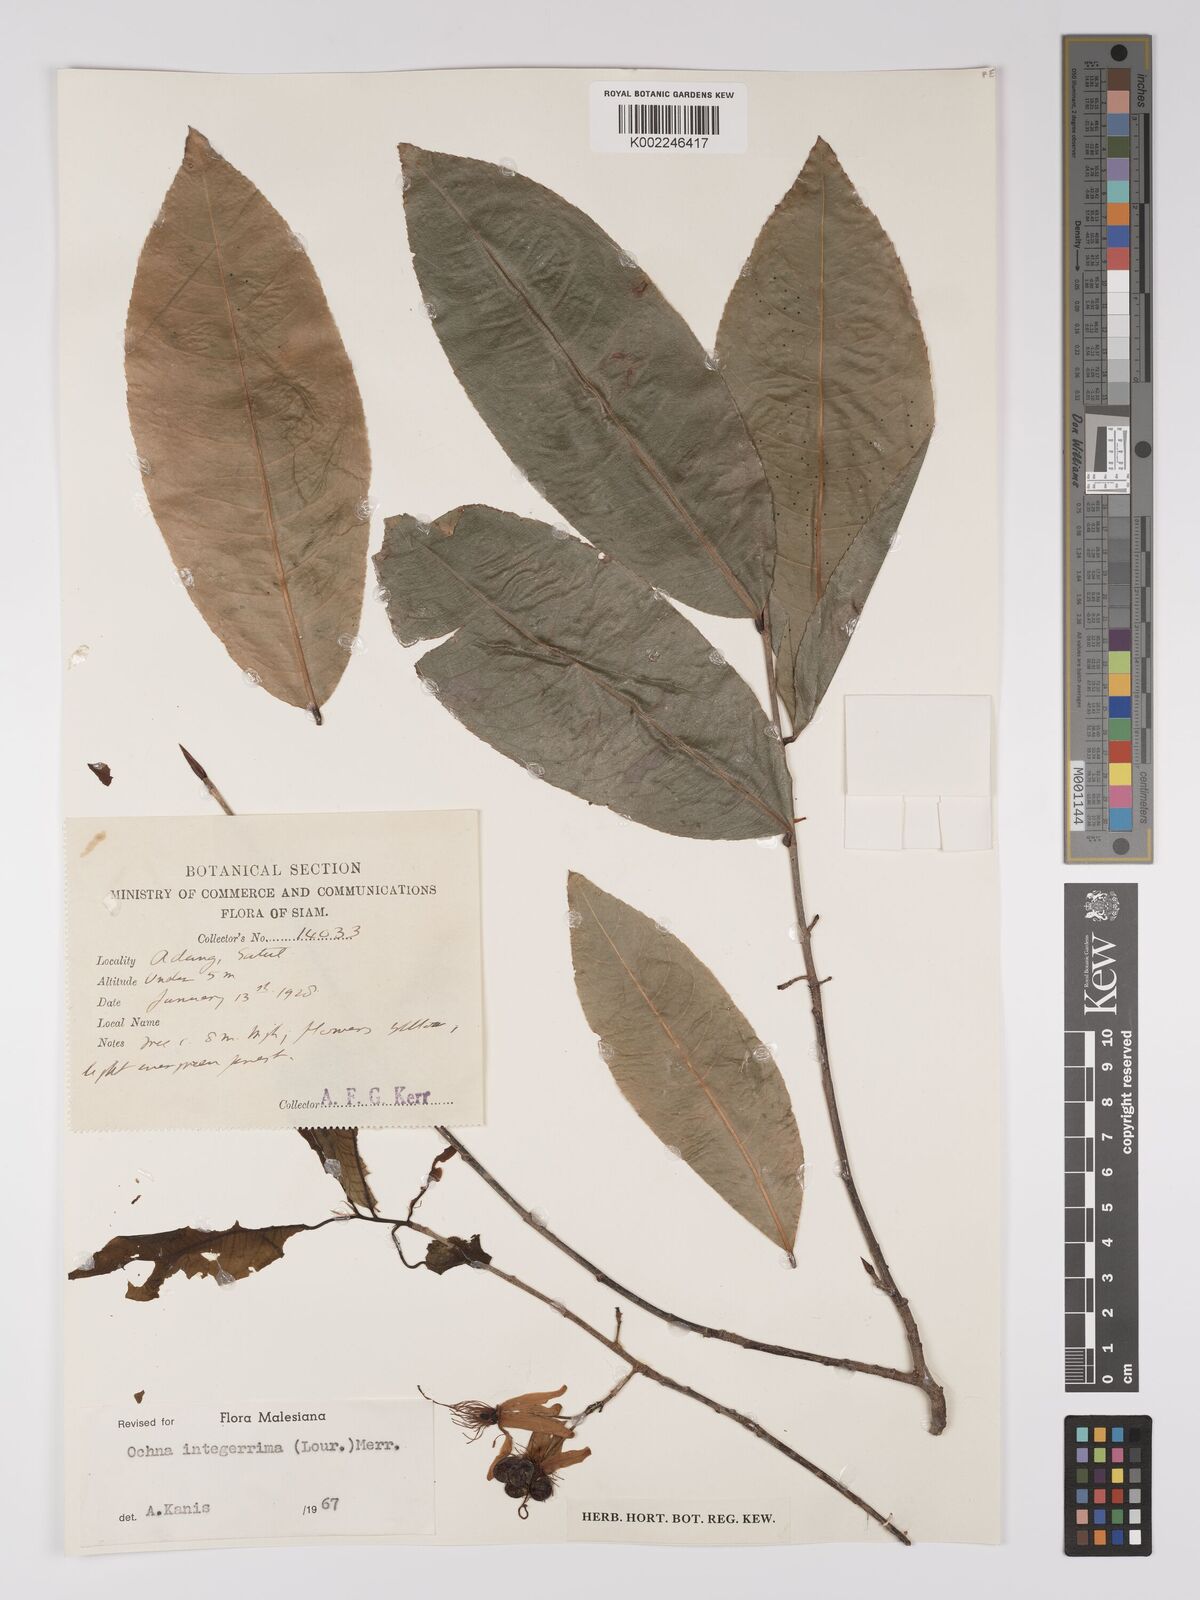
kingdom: Plantae
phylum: Tracheophyta
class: Magnoliopsida
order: Malpighiales
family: Ochnaceae
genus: Ochna
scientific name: Ochna integerrima
